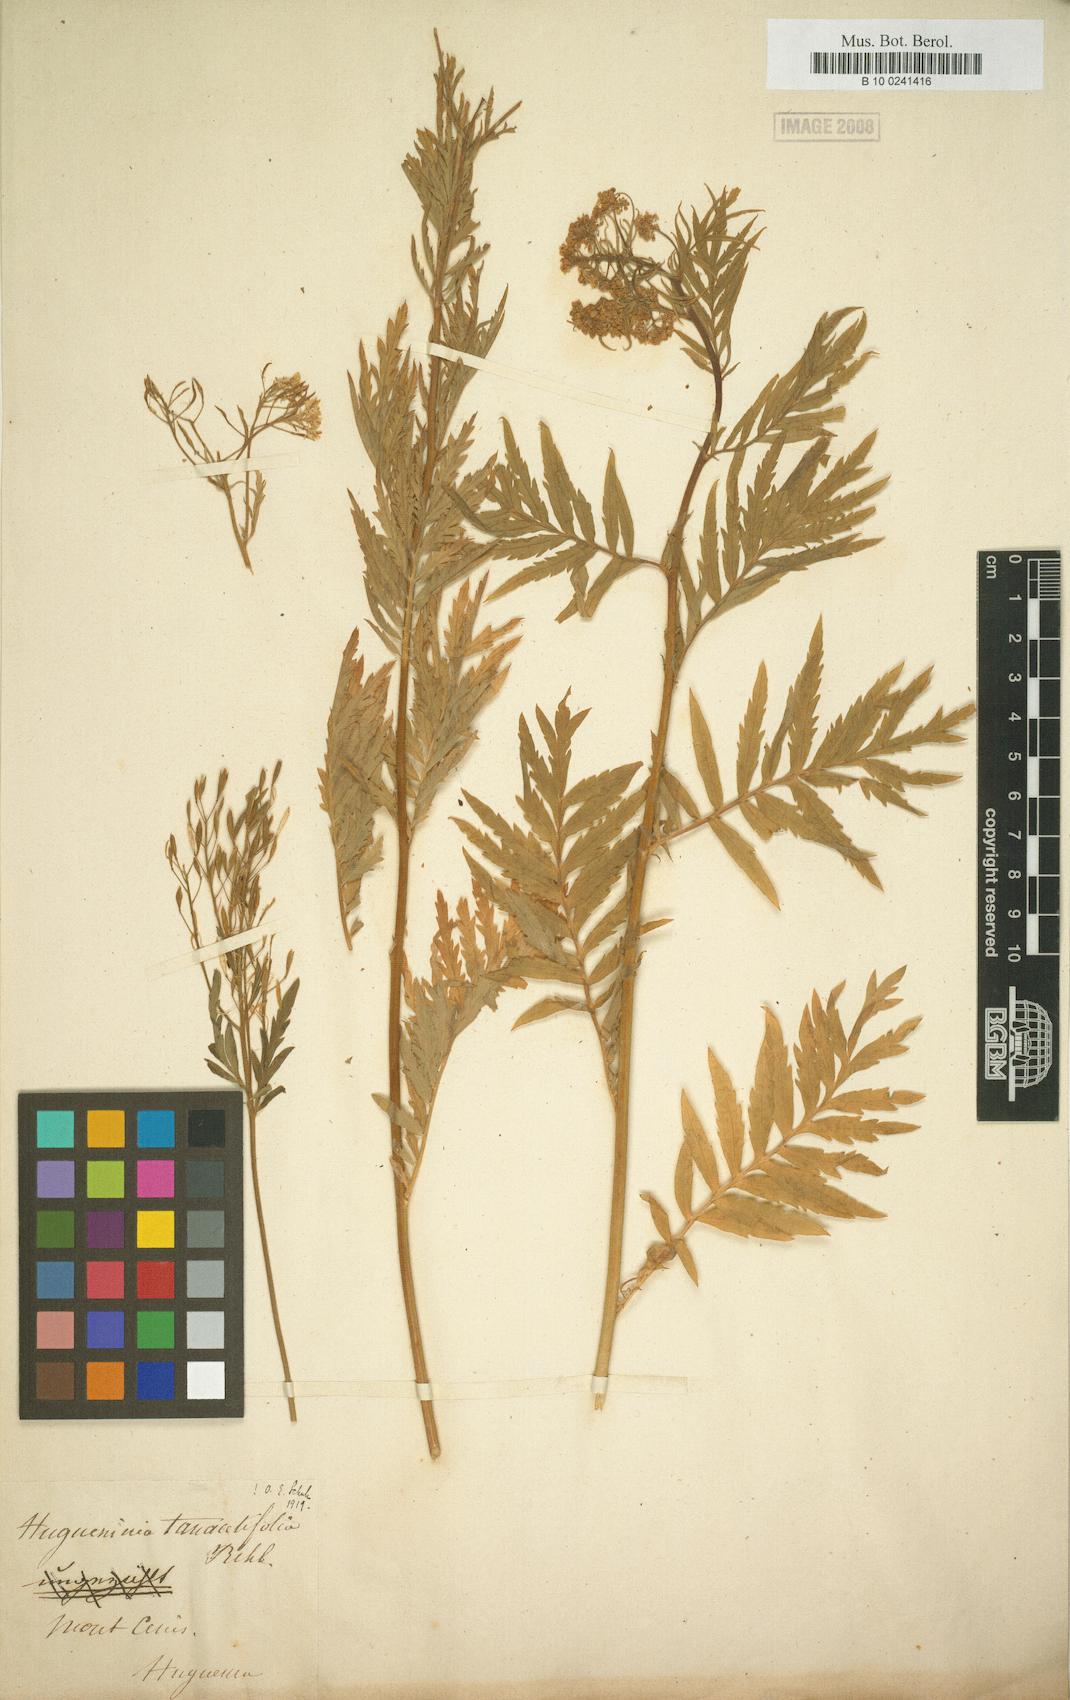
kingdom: Plantae
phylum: Tracheophyta
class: Magnoliopsida
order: Brassicales
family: Brassicaceae
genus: Descurainia
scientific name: Descurainia tanacetifolia
